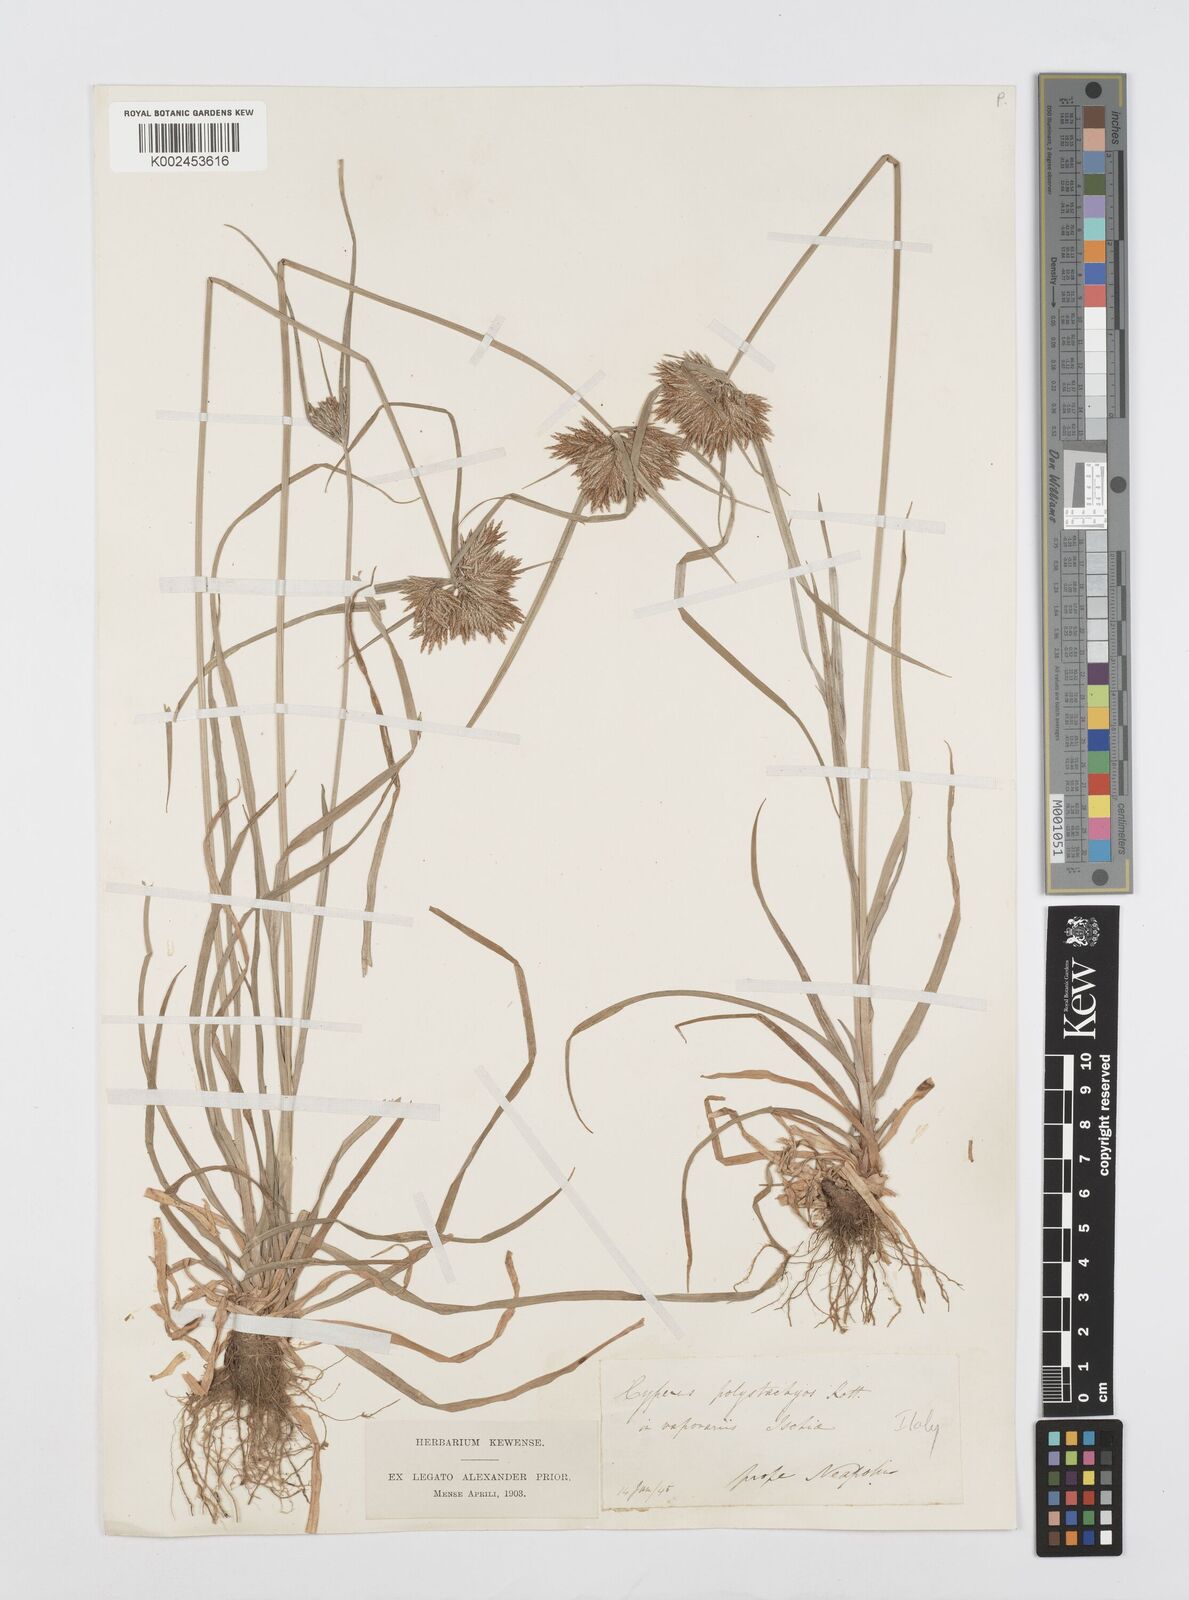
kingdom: Plantae
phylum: Tracheophyta
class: Liliopsida
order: Poales
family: Cyperaceae
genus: Cyperus
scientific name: Cyperus polystachyos
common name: Bunchy flat sedge
